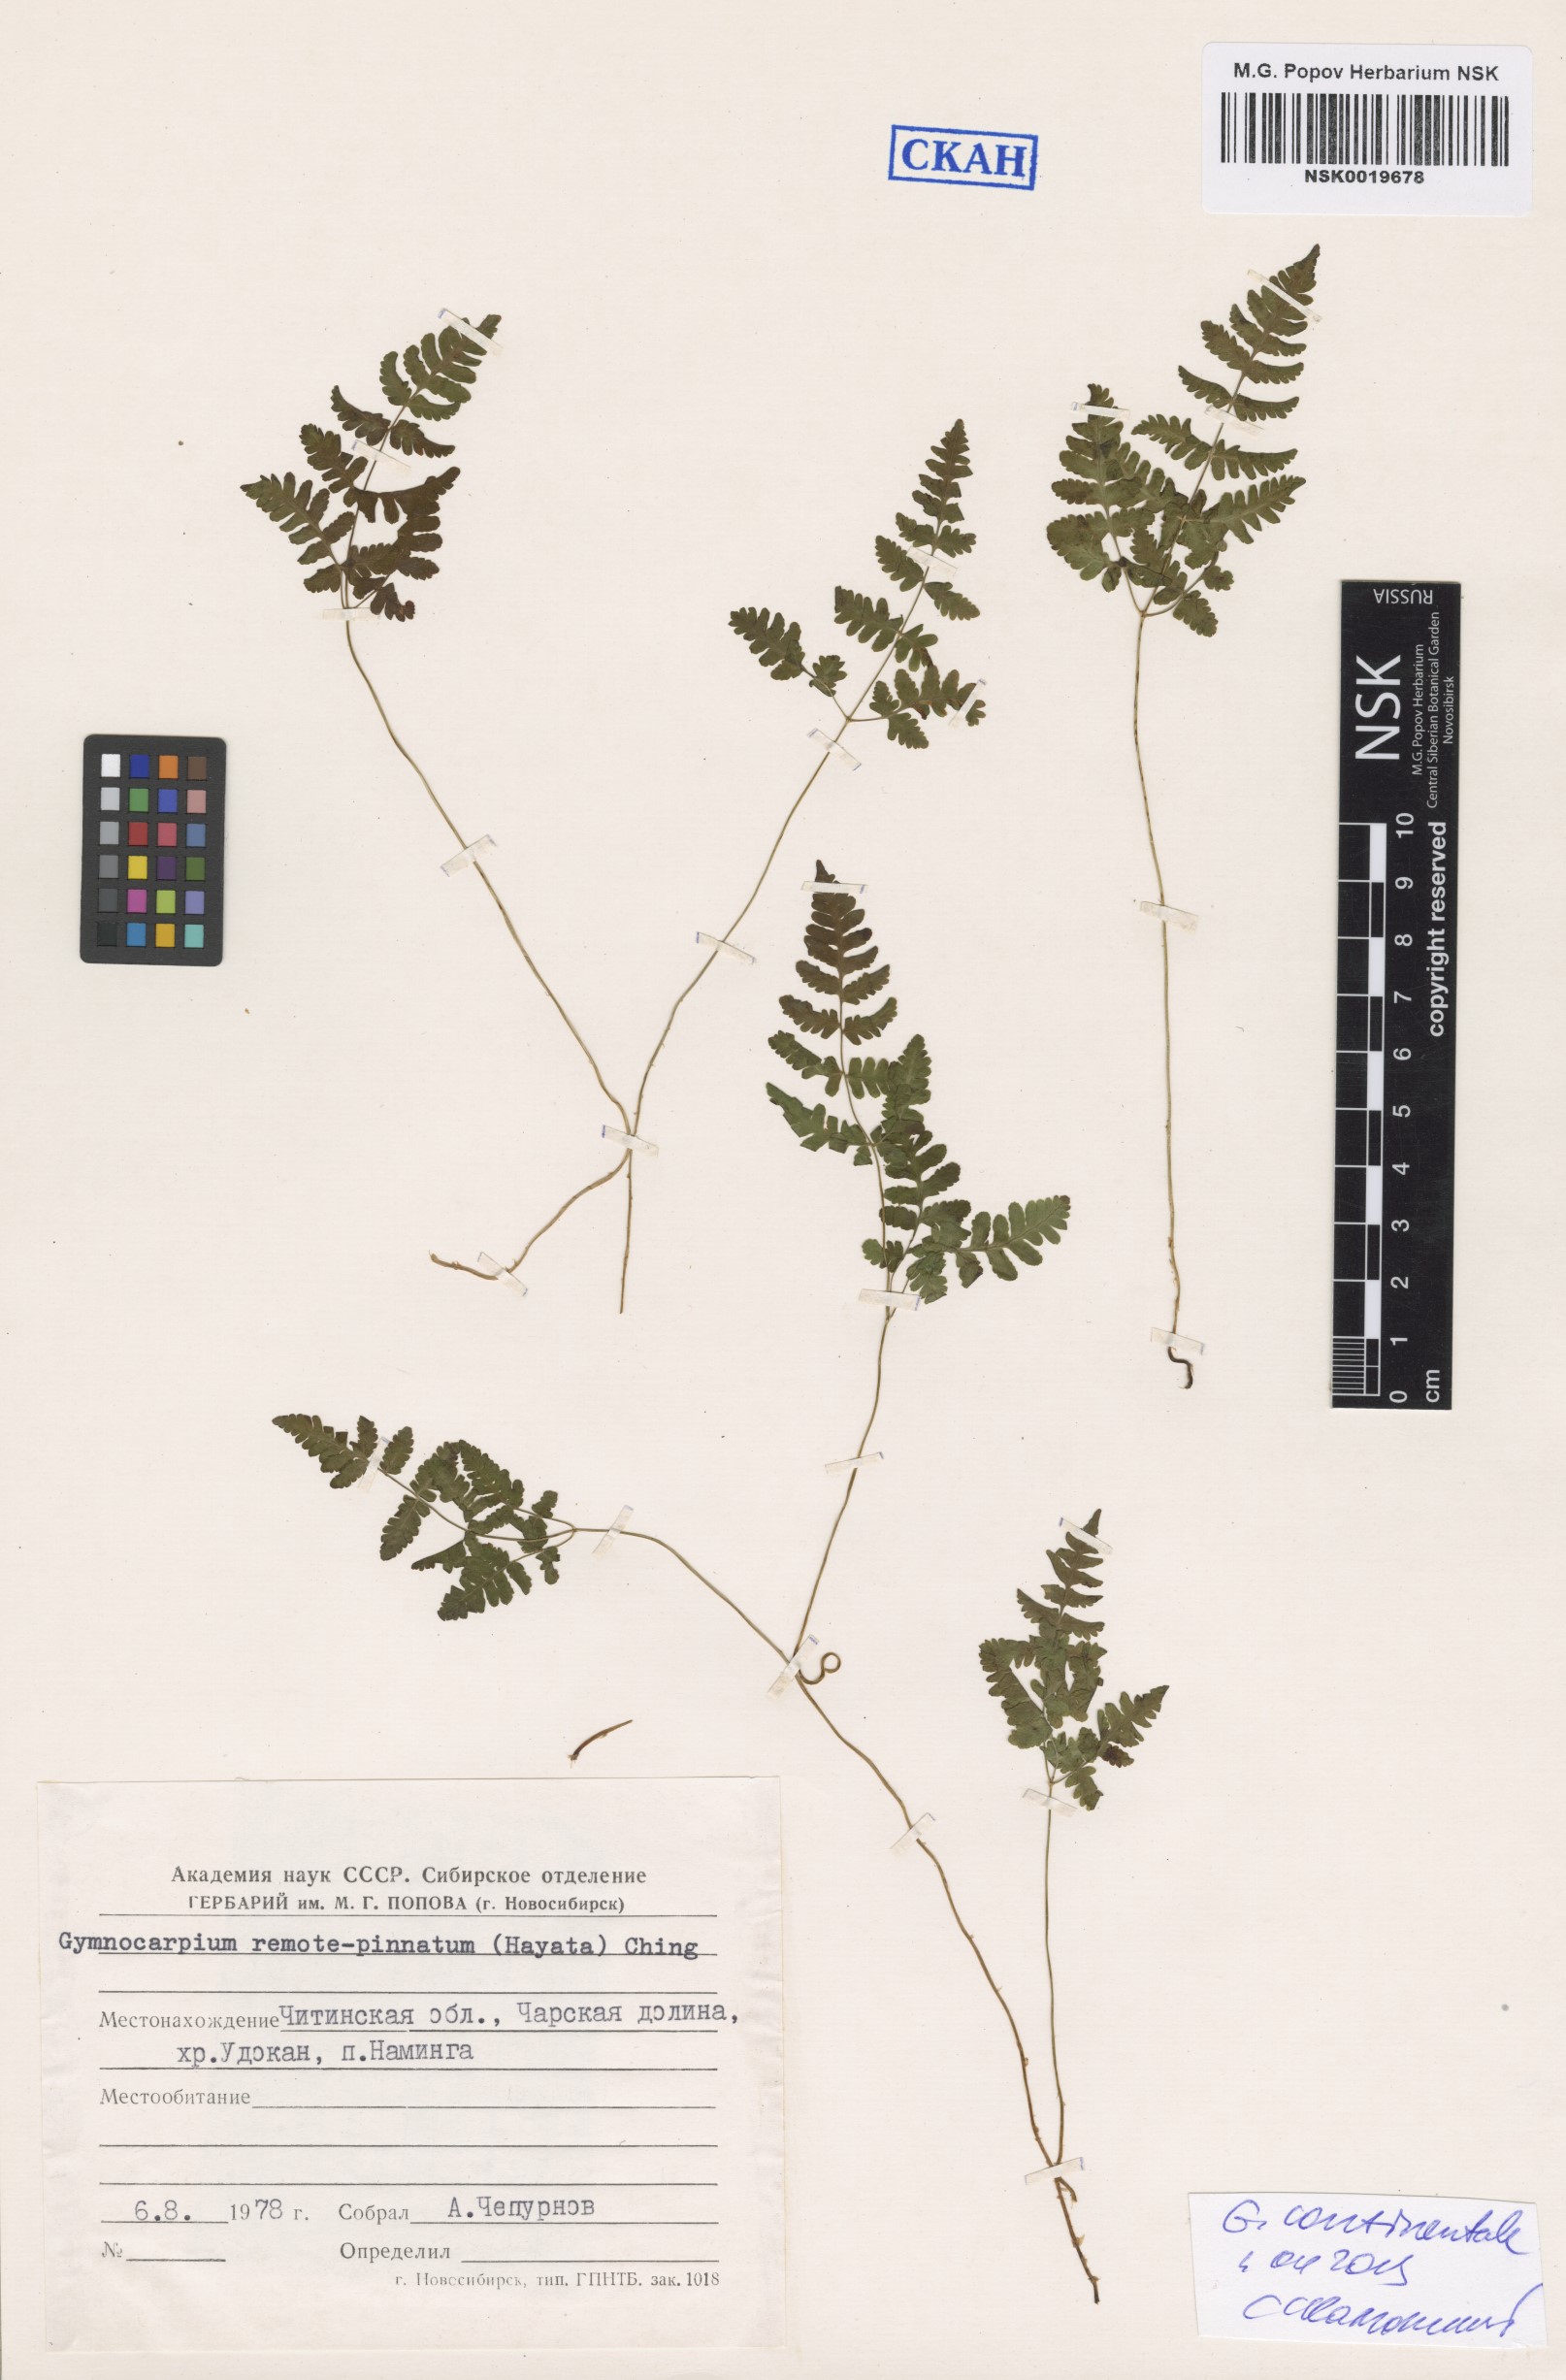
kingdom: Plantae
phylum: Tracheophyta
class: Polypodiopsida
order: Polypodiales
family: Cystopteridaceae
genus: Gymnocarpium
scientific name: Gymnocarpium continentale
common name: Asian oak fern
